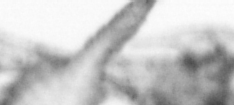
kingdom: Animalia
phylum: Arthropoda
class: Copepoda
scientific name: Copepoda
